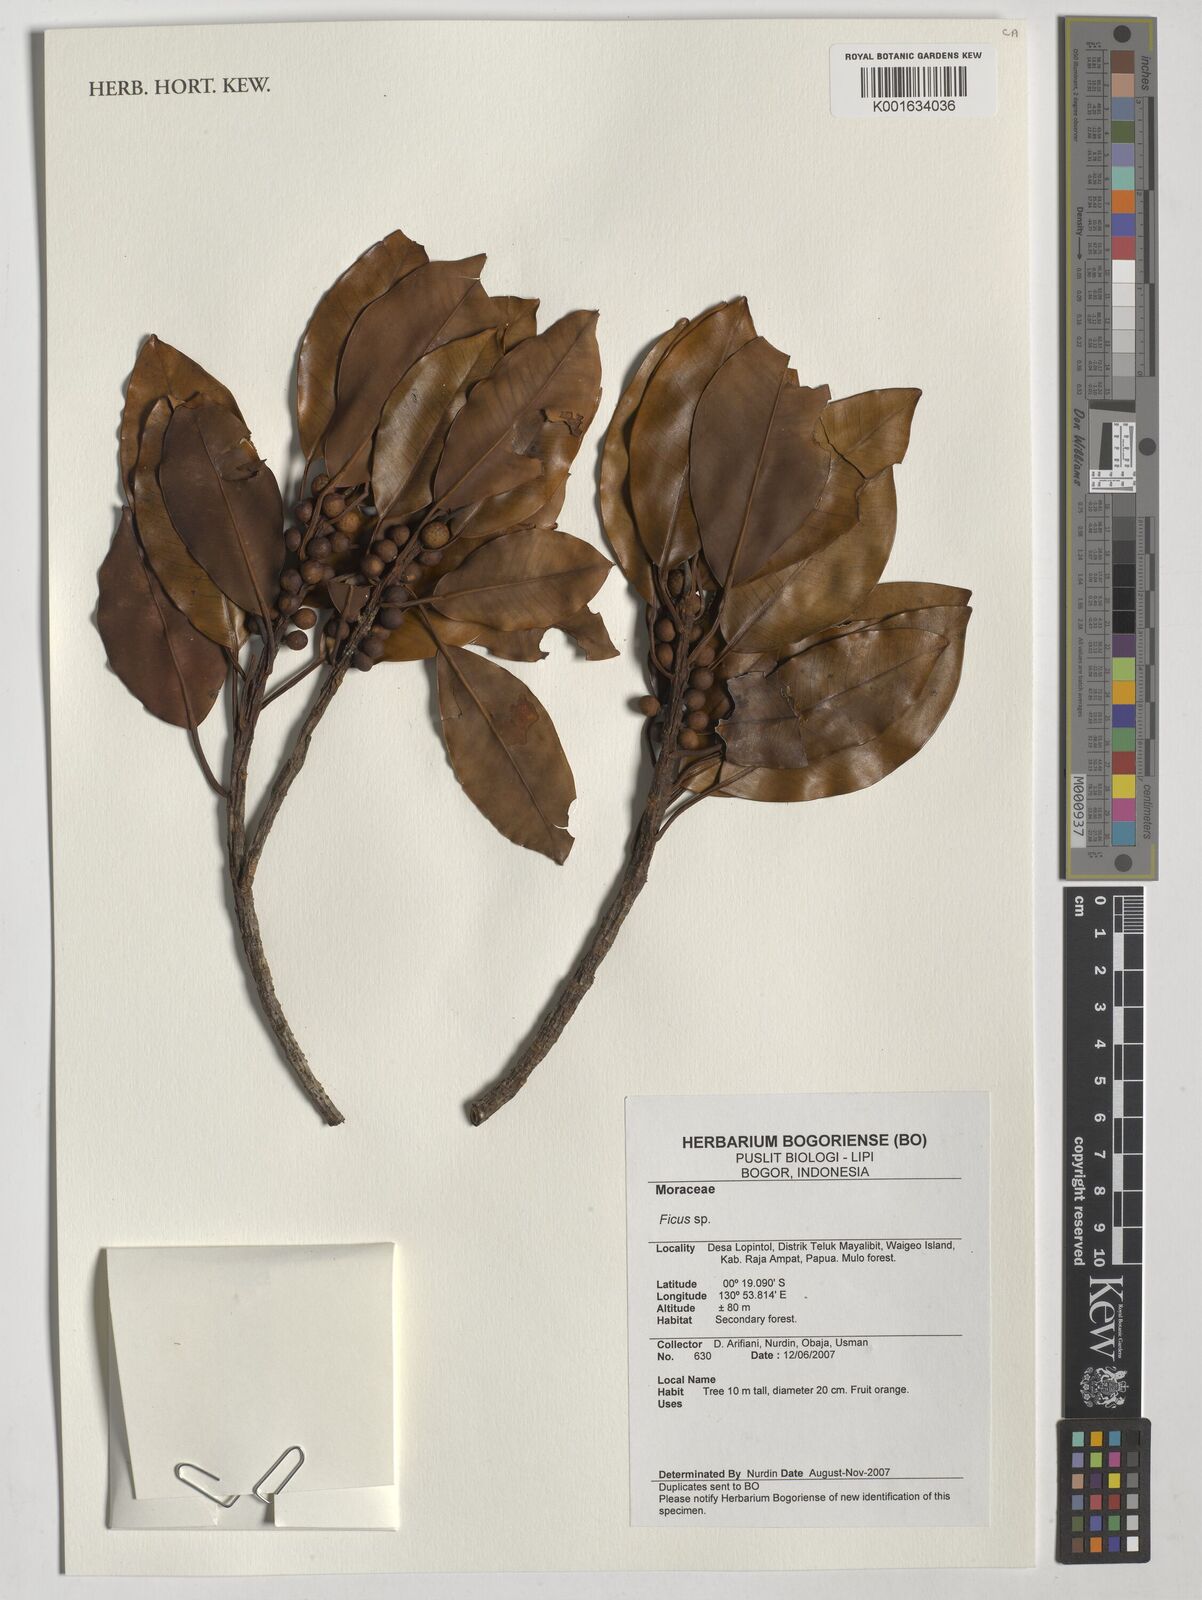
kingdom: Plantae
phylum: Tracheophyta
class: Magnoliopsida
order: Rosales
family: Moraceae
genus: Ficus
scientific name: Ficus
